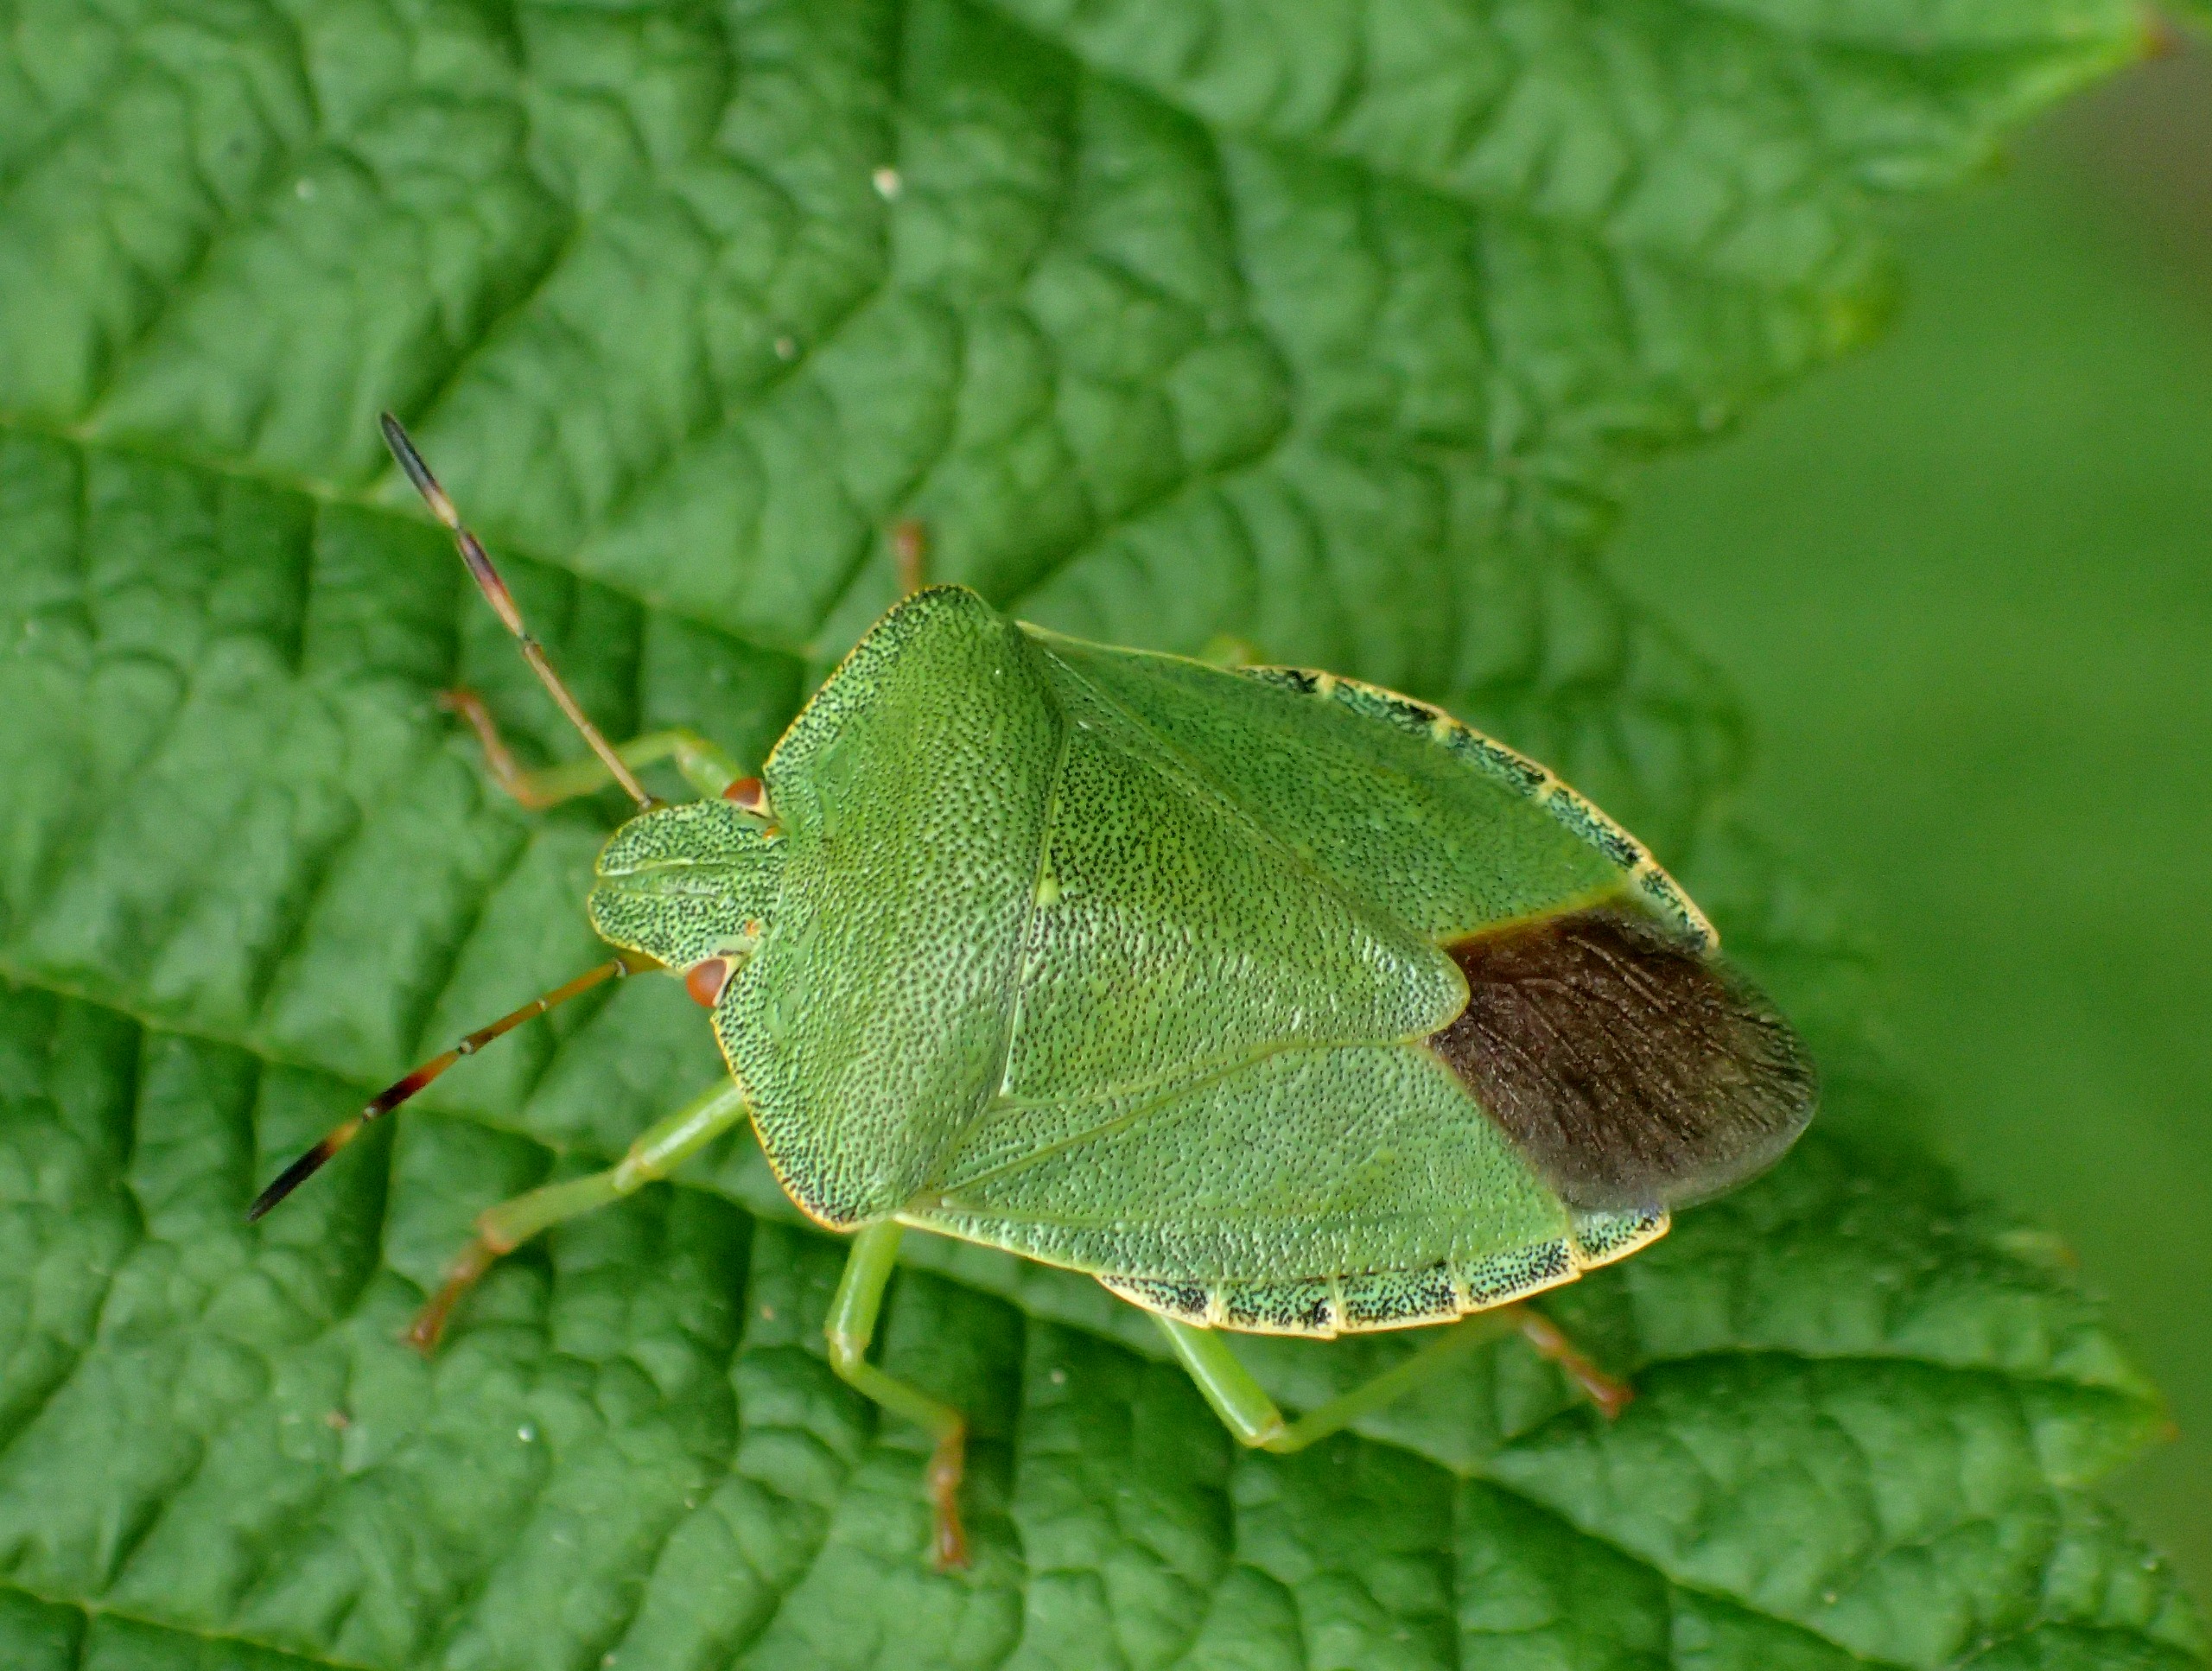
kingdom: Animalia
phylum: Arthropoda
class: Insecta
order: Hemiptera
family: Pentatomidae
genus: Palomena
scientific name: Palomena prasina
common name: Grøn bredtæge
